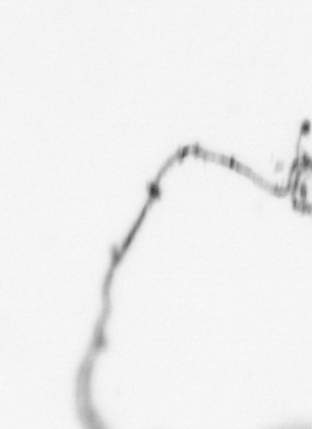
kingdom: Animalia
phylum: Cnidaria
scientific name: Cnidaria
